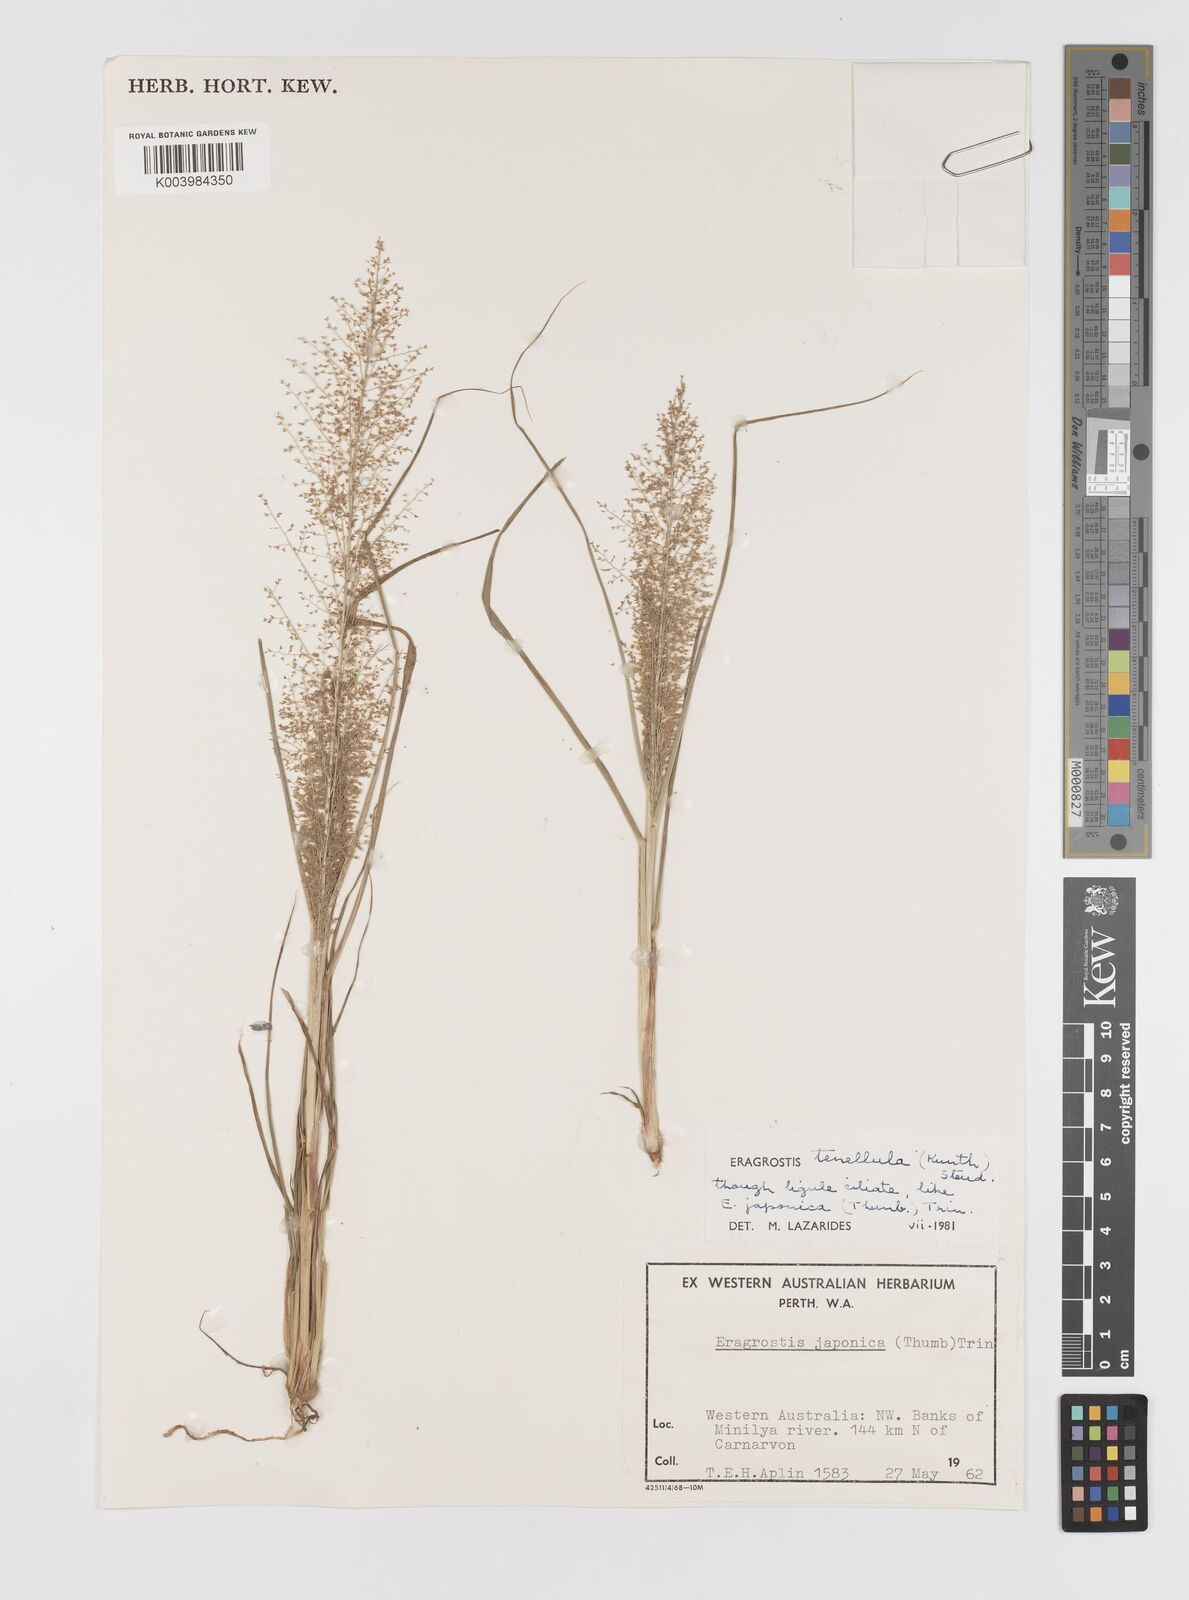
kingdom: Plantae
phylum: Tracheophyta
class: Liliopsida
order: Poales
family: Poaceae
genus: Eragrostis
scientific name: Eragrostis tenellula
